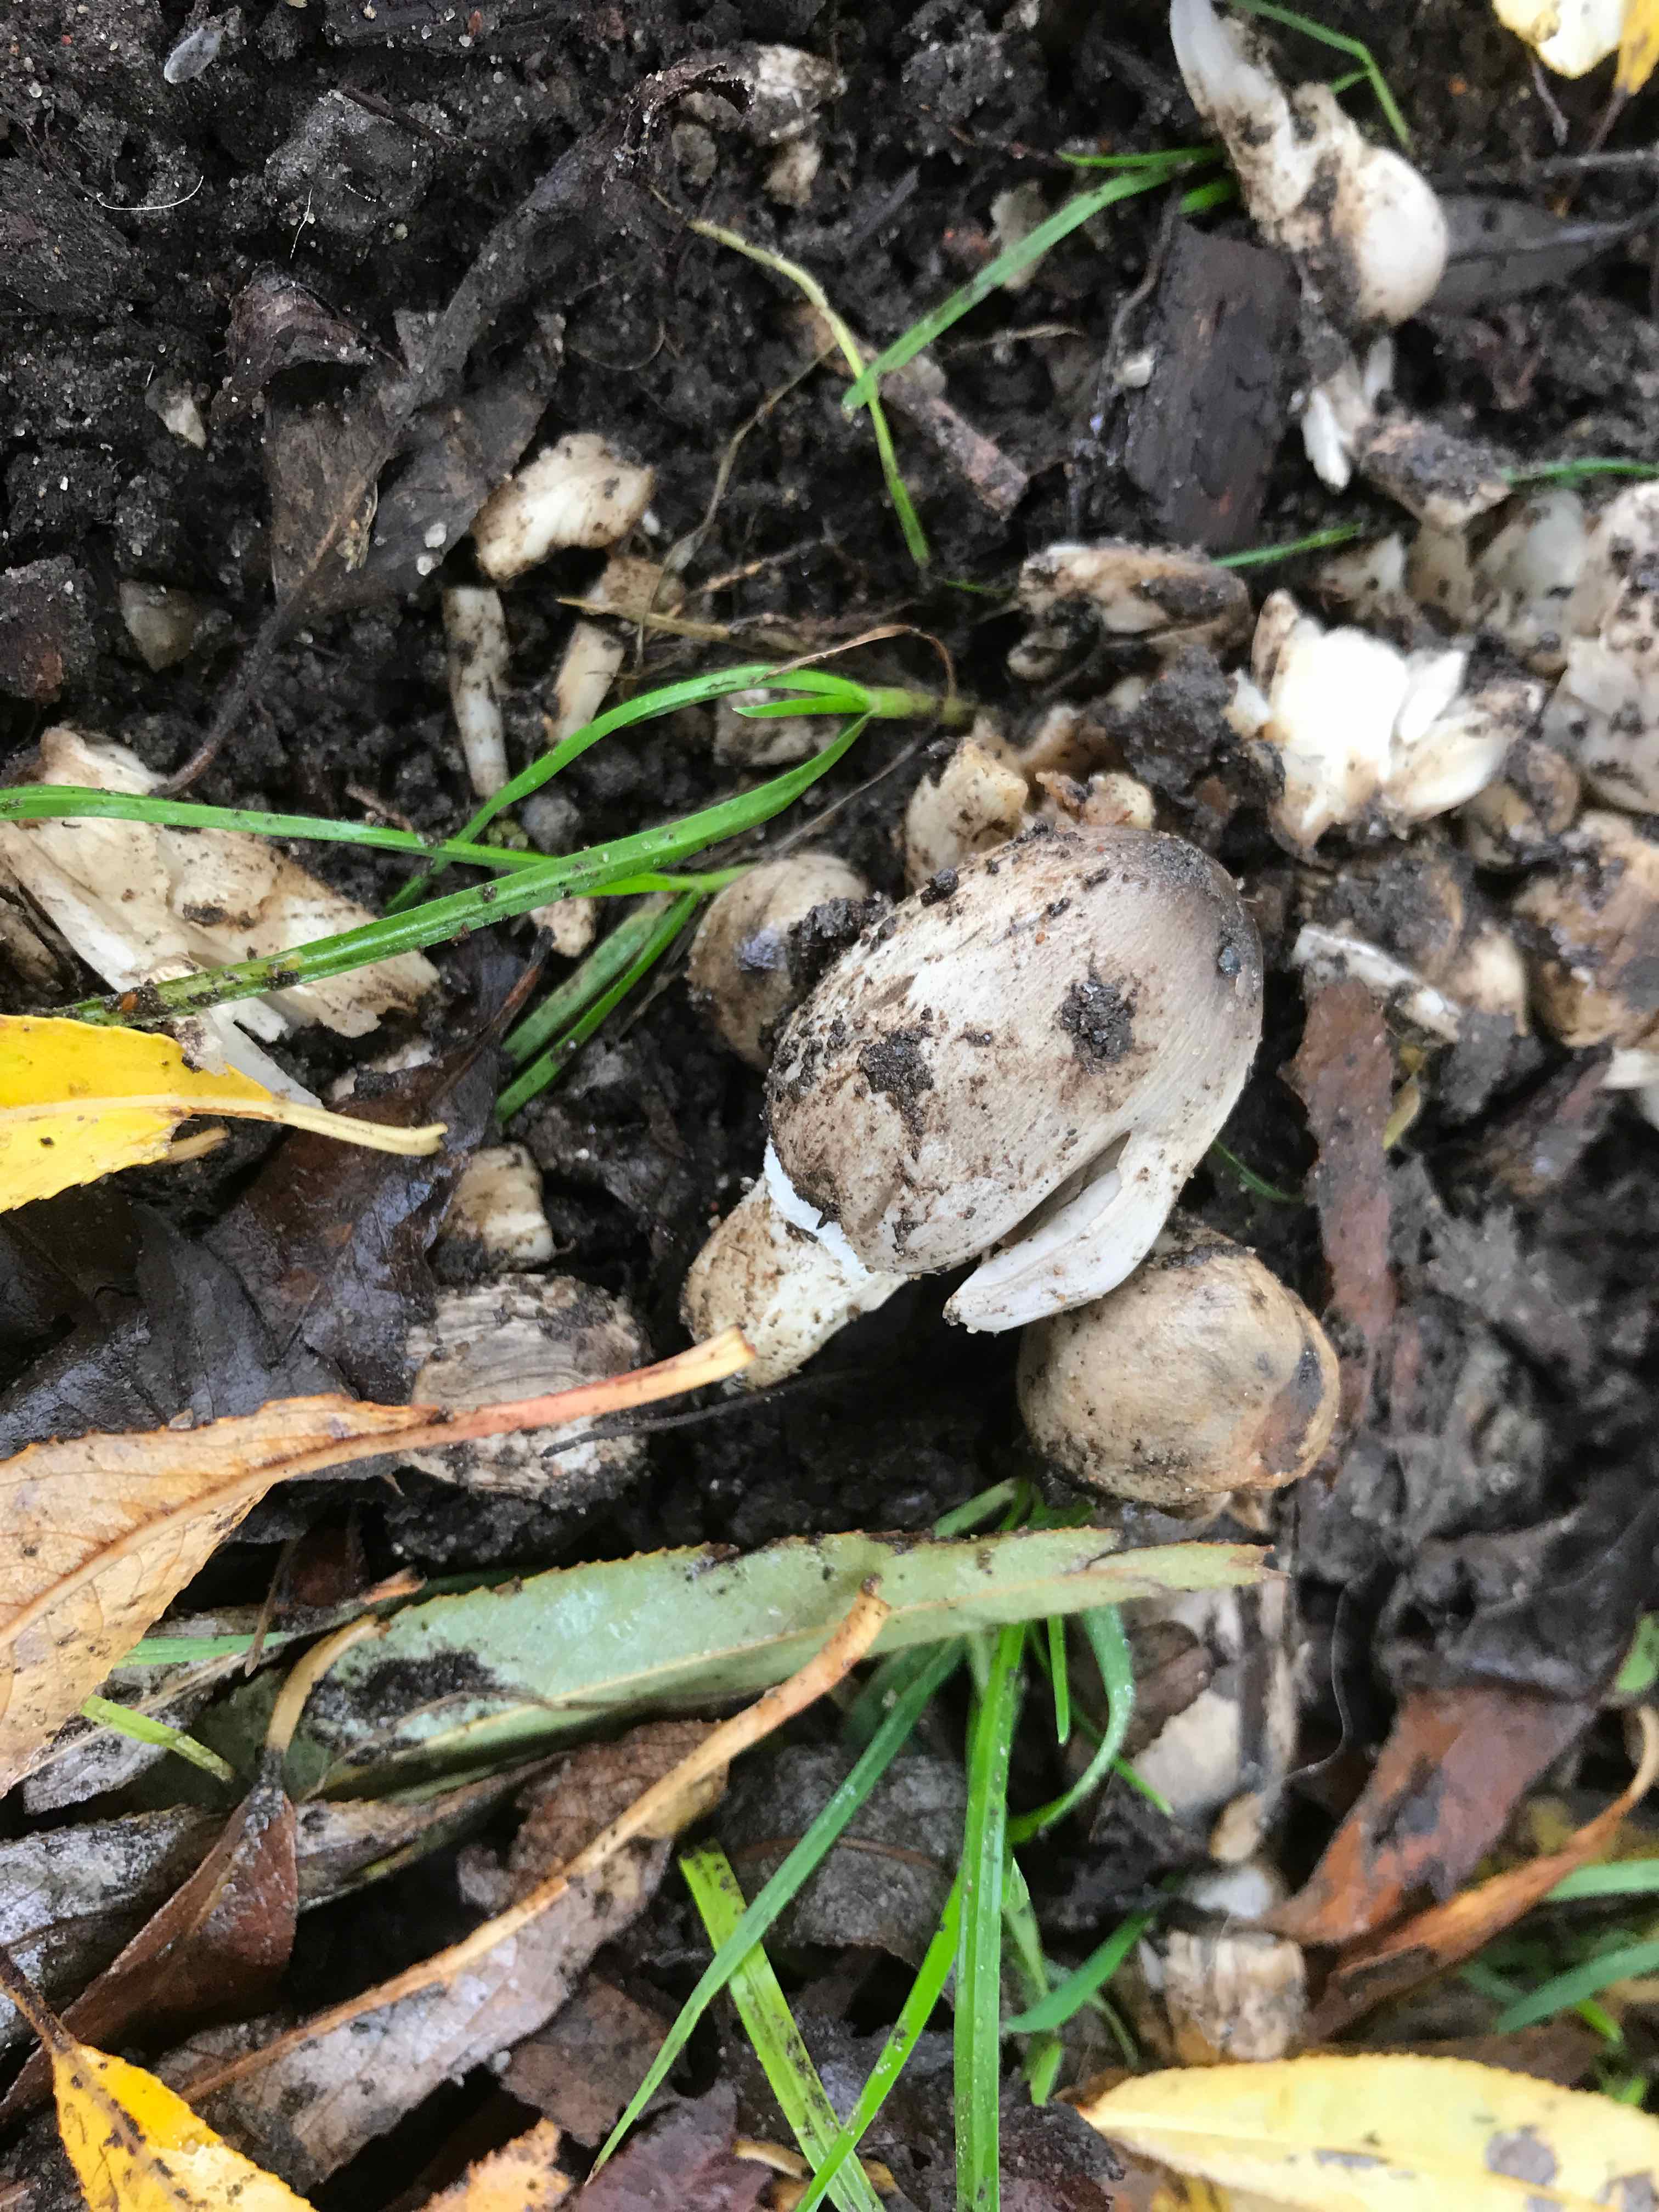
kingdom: Fungi
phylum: Basidiomycota
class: Agaricomycetes
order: Agaricales
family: Psathyrellaceae
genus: Coprinopsis
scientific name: Coprinopsis atramentaria
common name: almindelig blækhat
